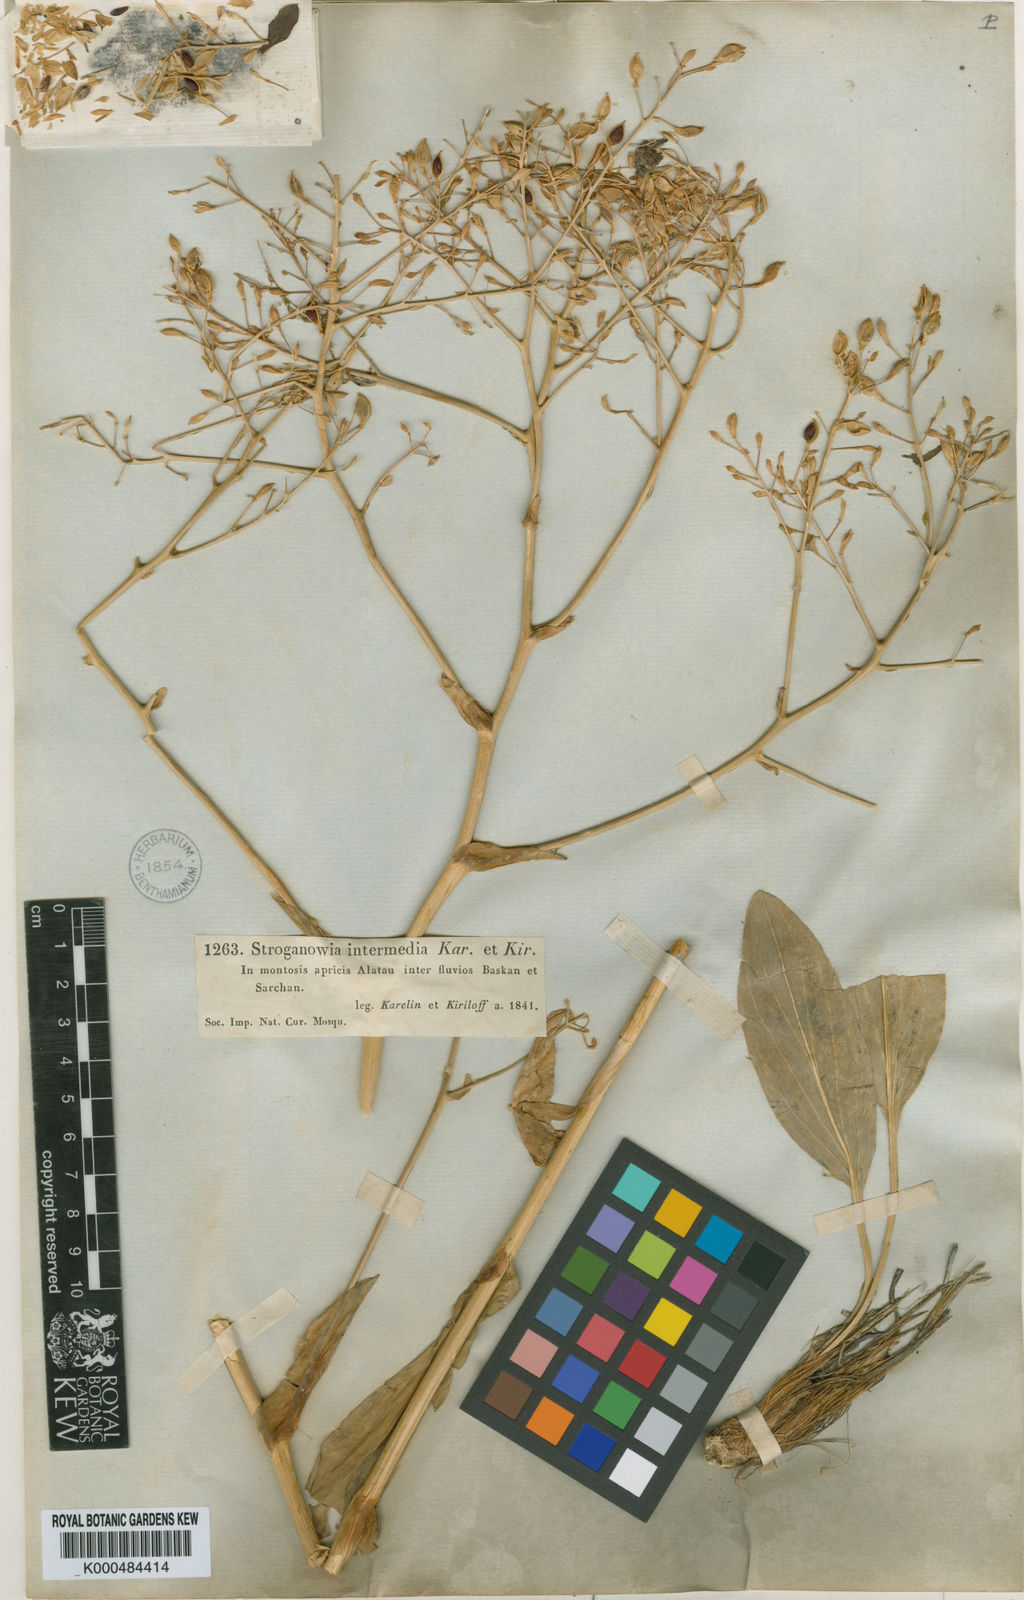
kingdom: Plantae
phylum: Tracheophyta
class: Magnoliopsida
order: Brassicales
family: Brassicaceae
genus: Lepidium
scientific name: Lepidium karelinianum
